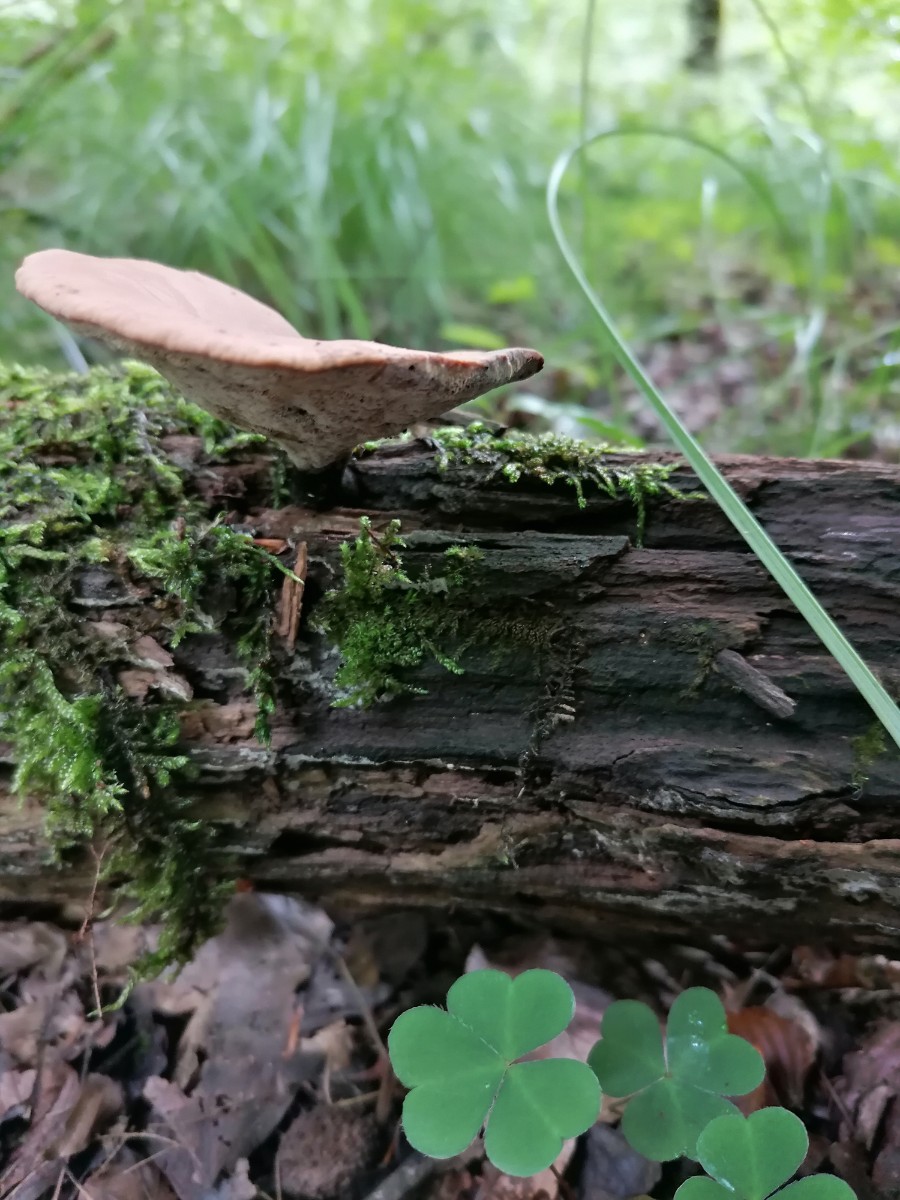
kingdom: Fungi
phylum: Basidiomycota
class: Agaricomycetes
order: Polyporales
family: Polyporaceae
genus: Cerioporus
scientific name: Cerioporus varius
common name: foranderlig stilkporesvamp
